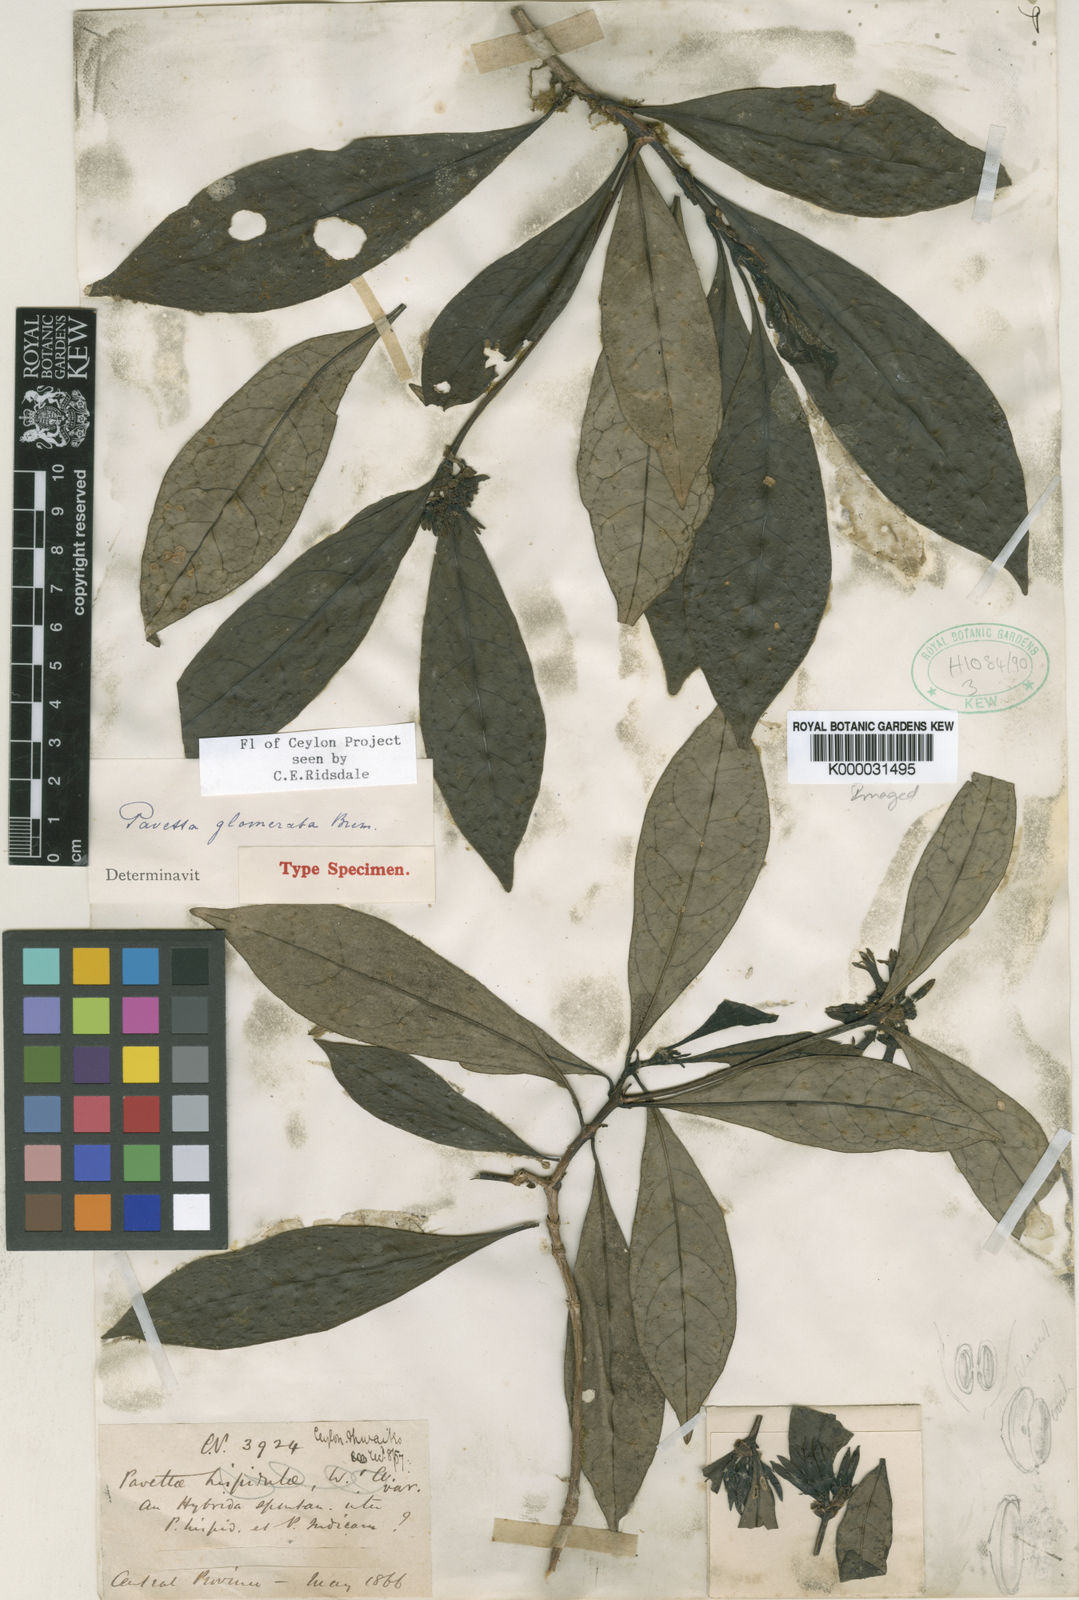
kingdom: Plantae
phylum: Tracheophyta
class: Magnoliopsida
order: Gentianales
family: Rubiaceae
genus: Pavetta
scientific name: Pavetta glomerata
